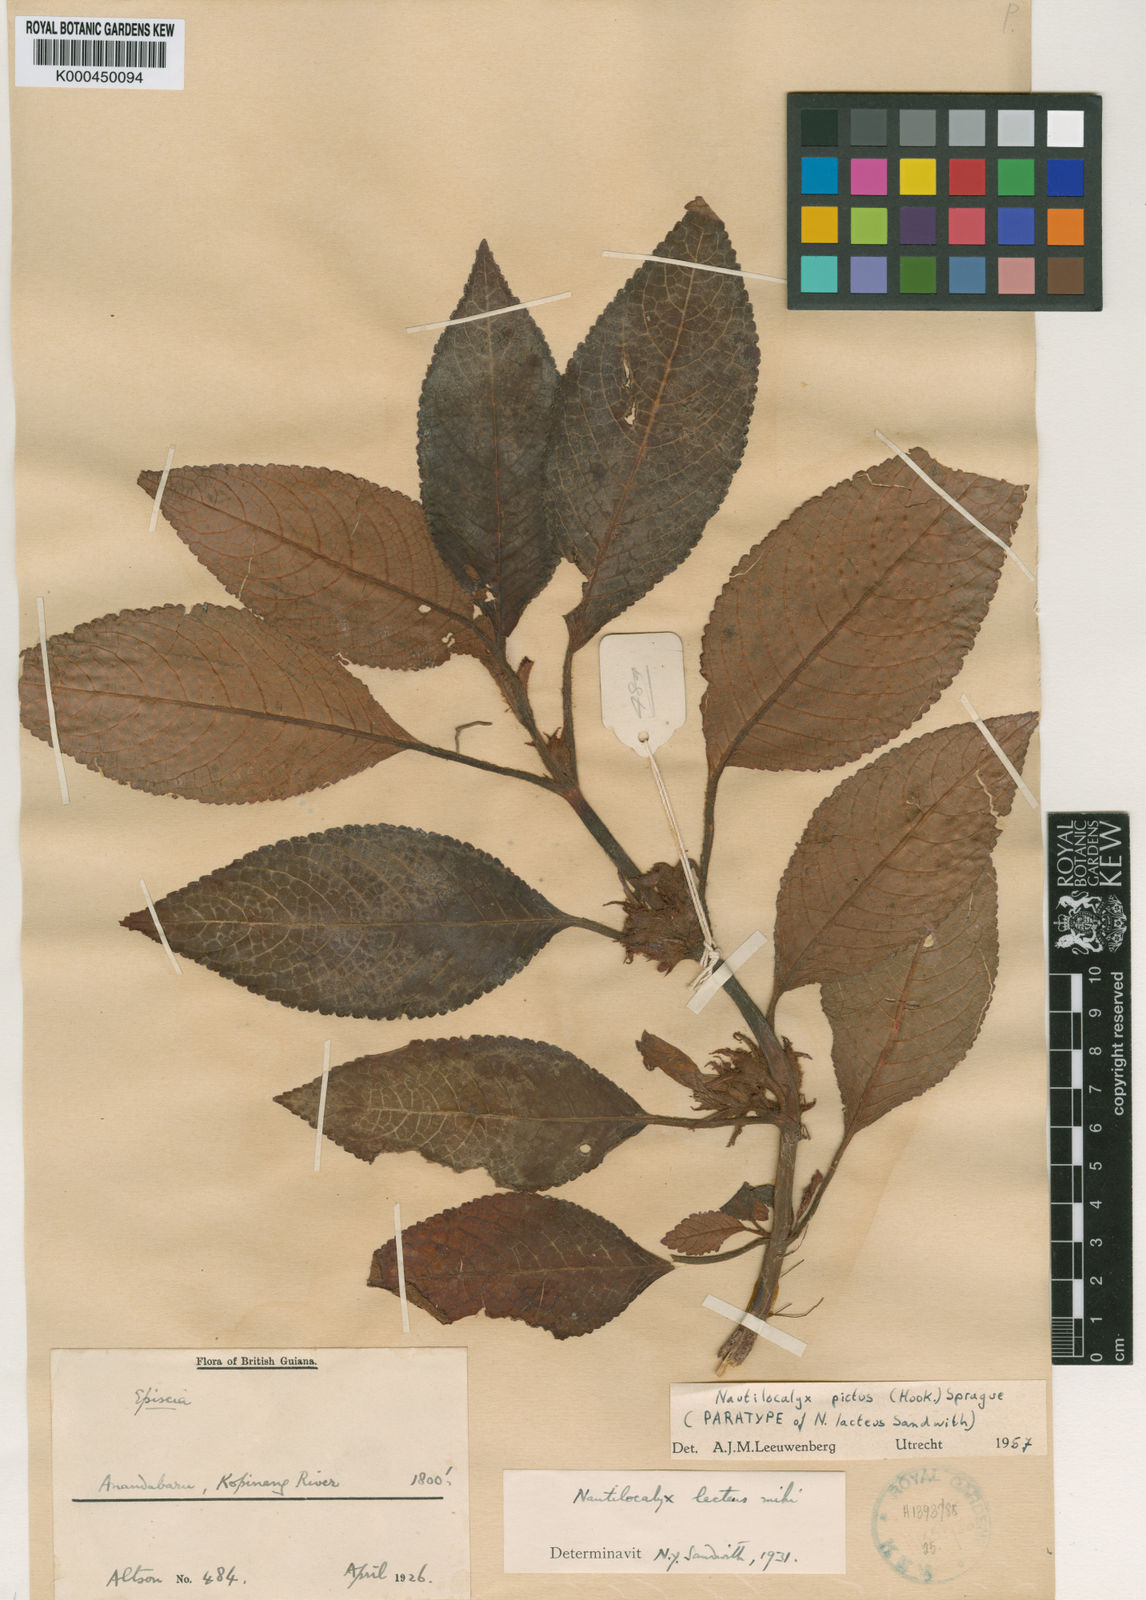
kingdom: Plantae
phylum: Tracheophyta
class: Magnoliopsida
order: Lamiales
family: Gesneriaceae
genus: Centrosolenia
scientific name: Centrosolenia picta
